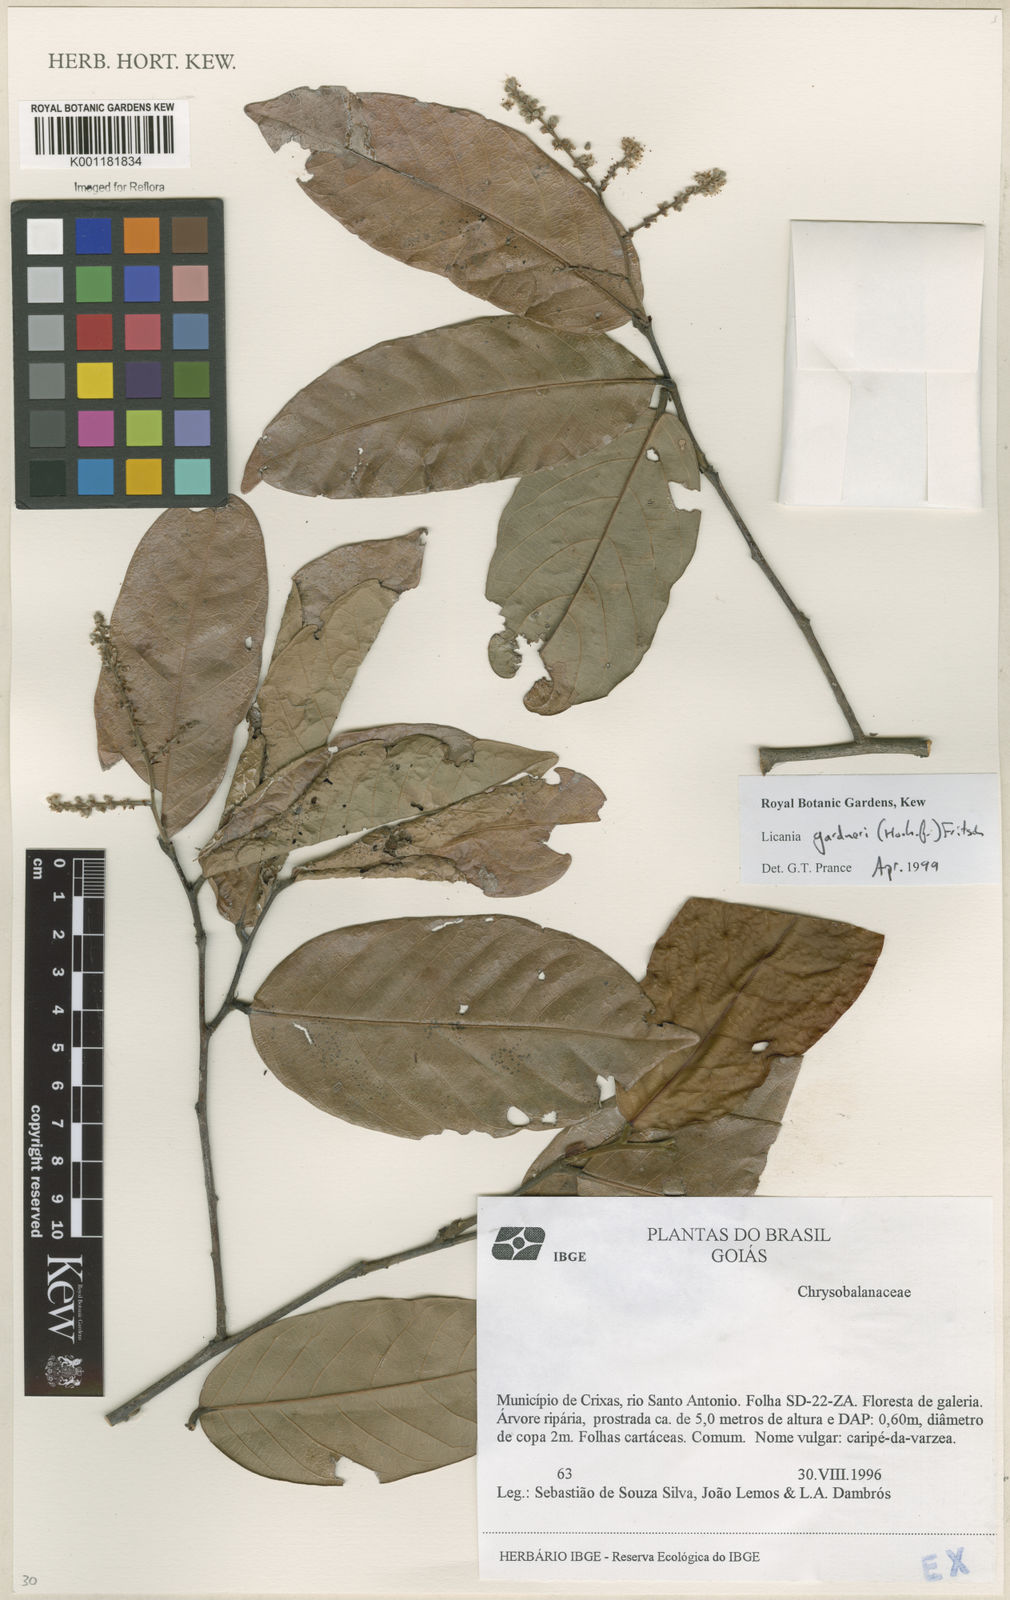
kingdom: Plantae
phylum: Tracheophyta
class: Magnoliopsida
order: Malpighiales
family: Chrysobalanaceae
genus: Leptobalanus
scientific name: Leptobalanus gardneri
